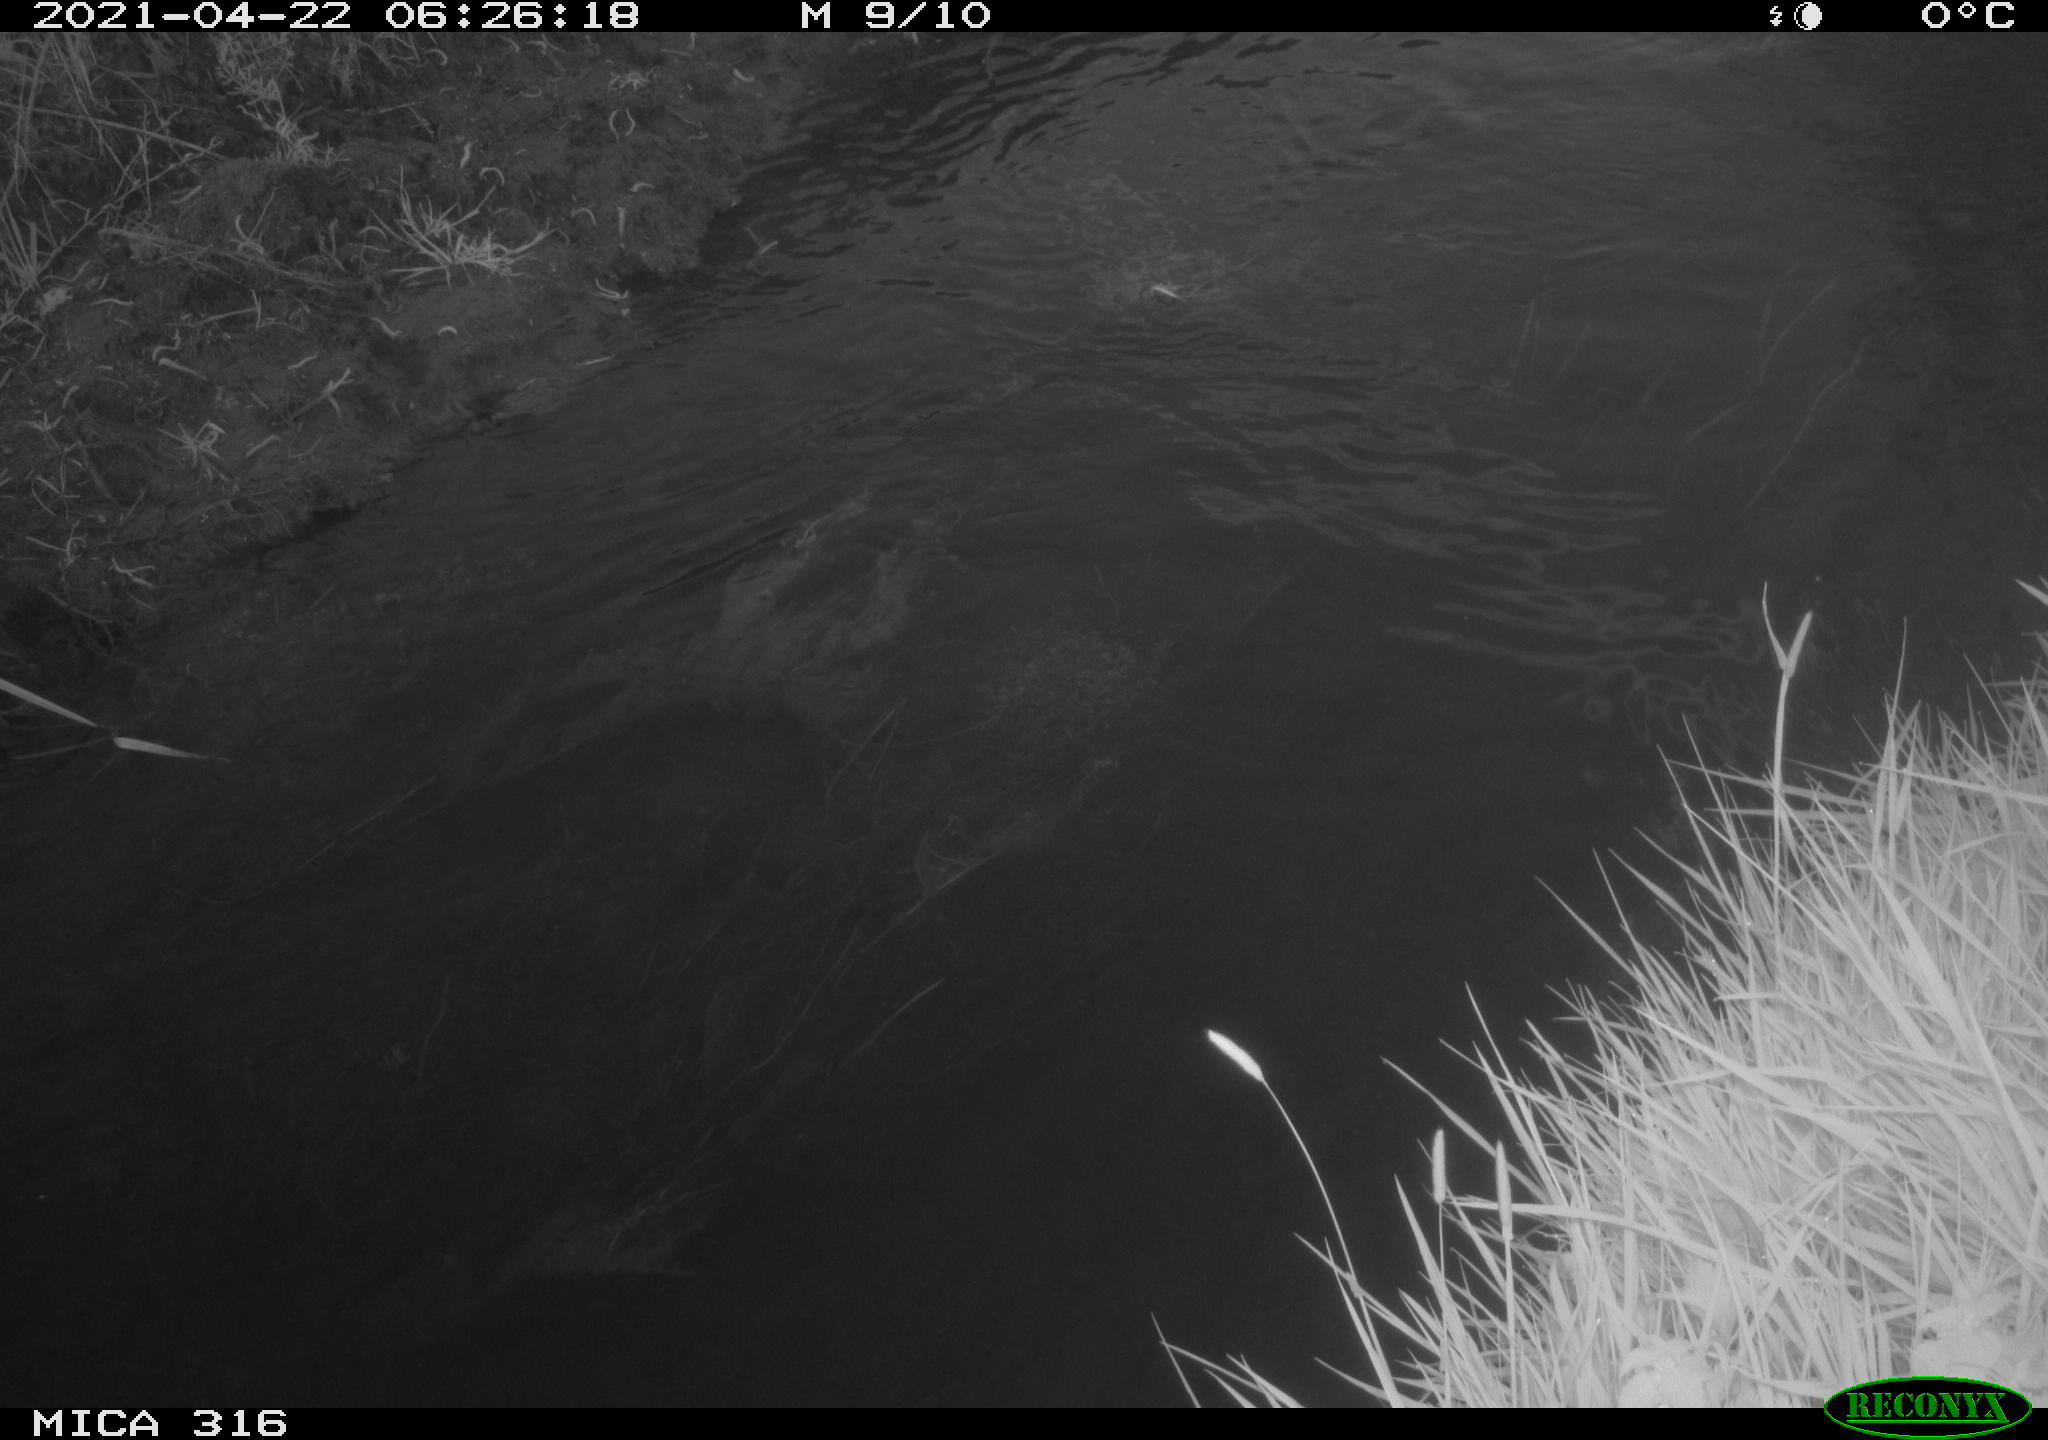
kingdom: Animalia
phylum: Chordata
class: Aves
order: Anseriformes
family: Anatidae
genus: Anas
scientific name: Anas platyrhynchos
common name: Mallard
